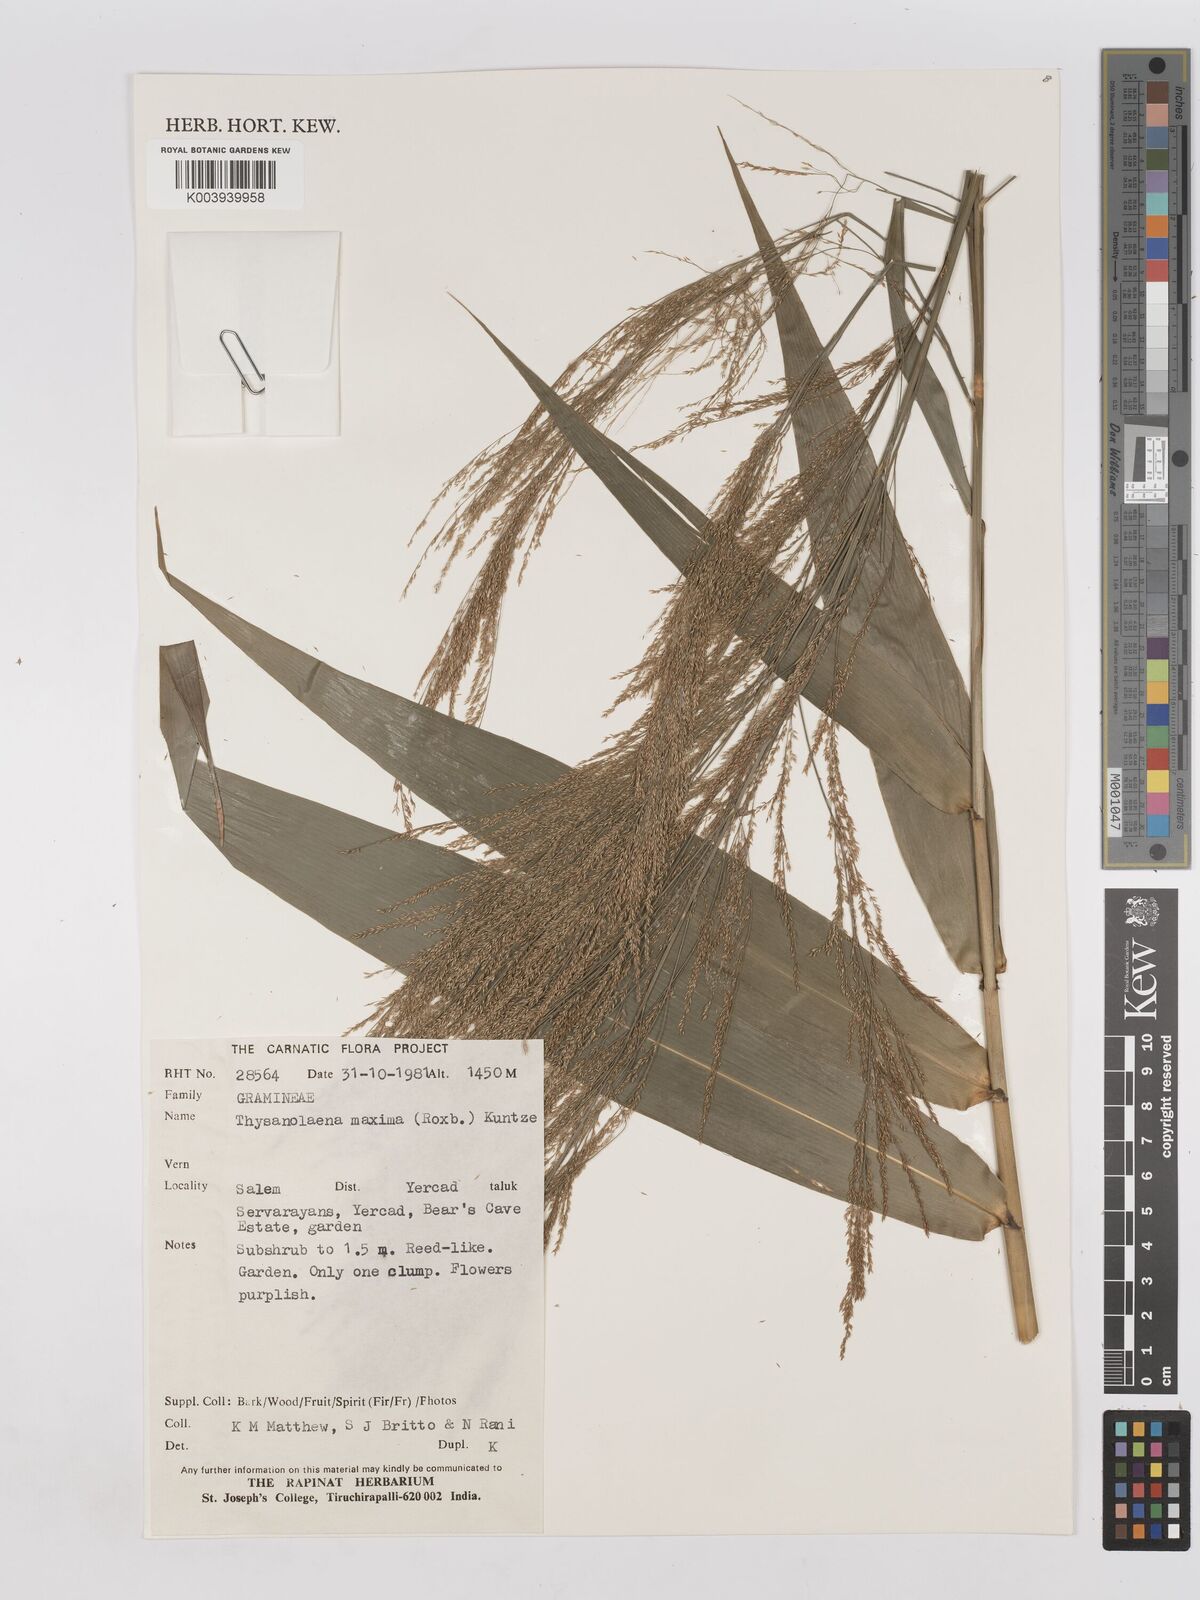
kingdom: Plantae
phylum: Tracheophyta
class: Liliopsida
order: Poales
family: Poaceae
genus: Thysanolaena
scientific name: Thysanolaena latifolia
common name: Tiger grass
